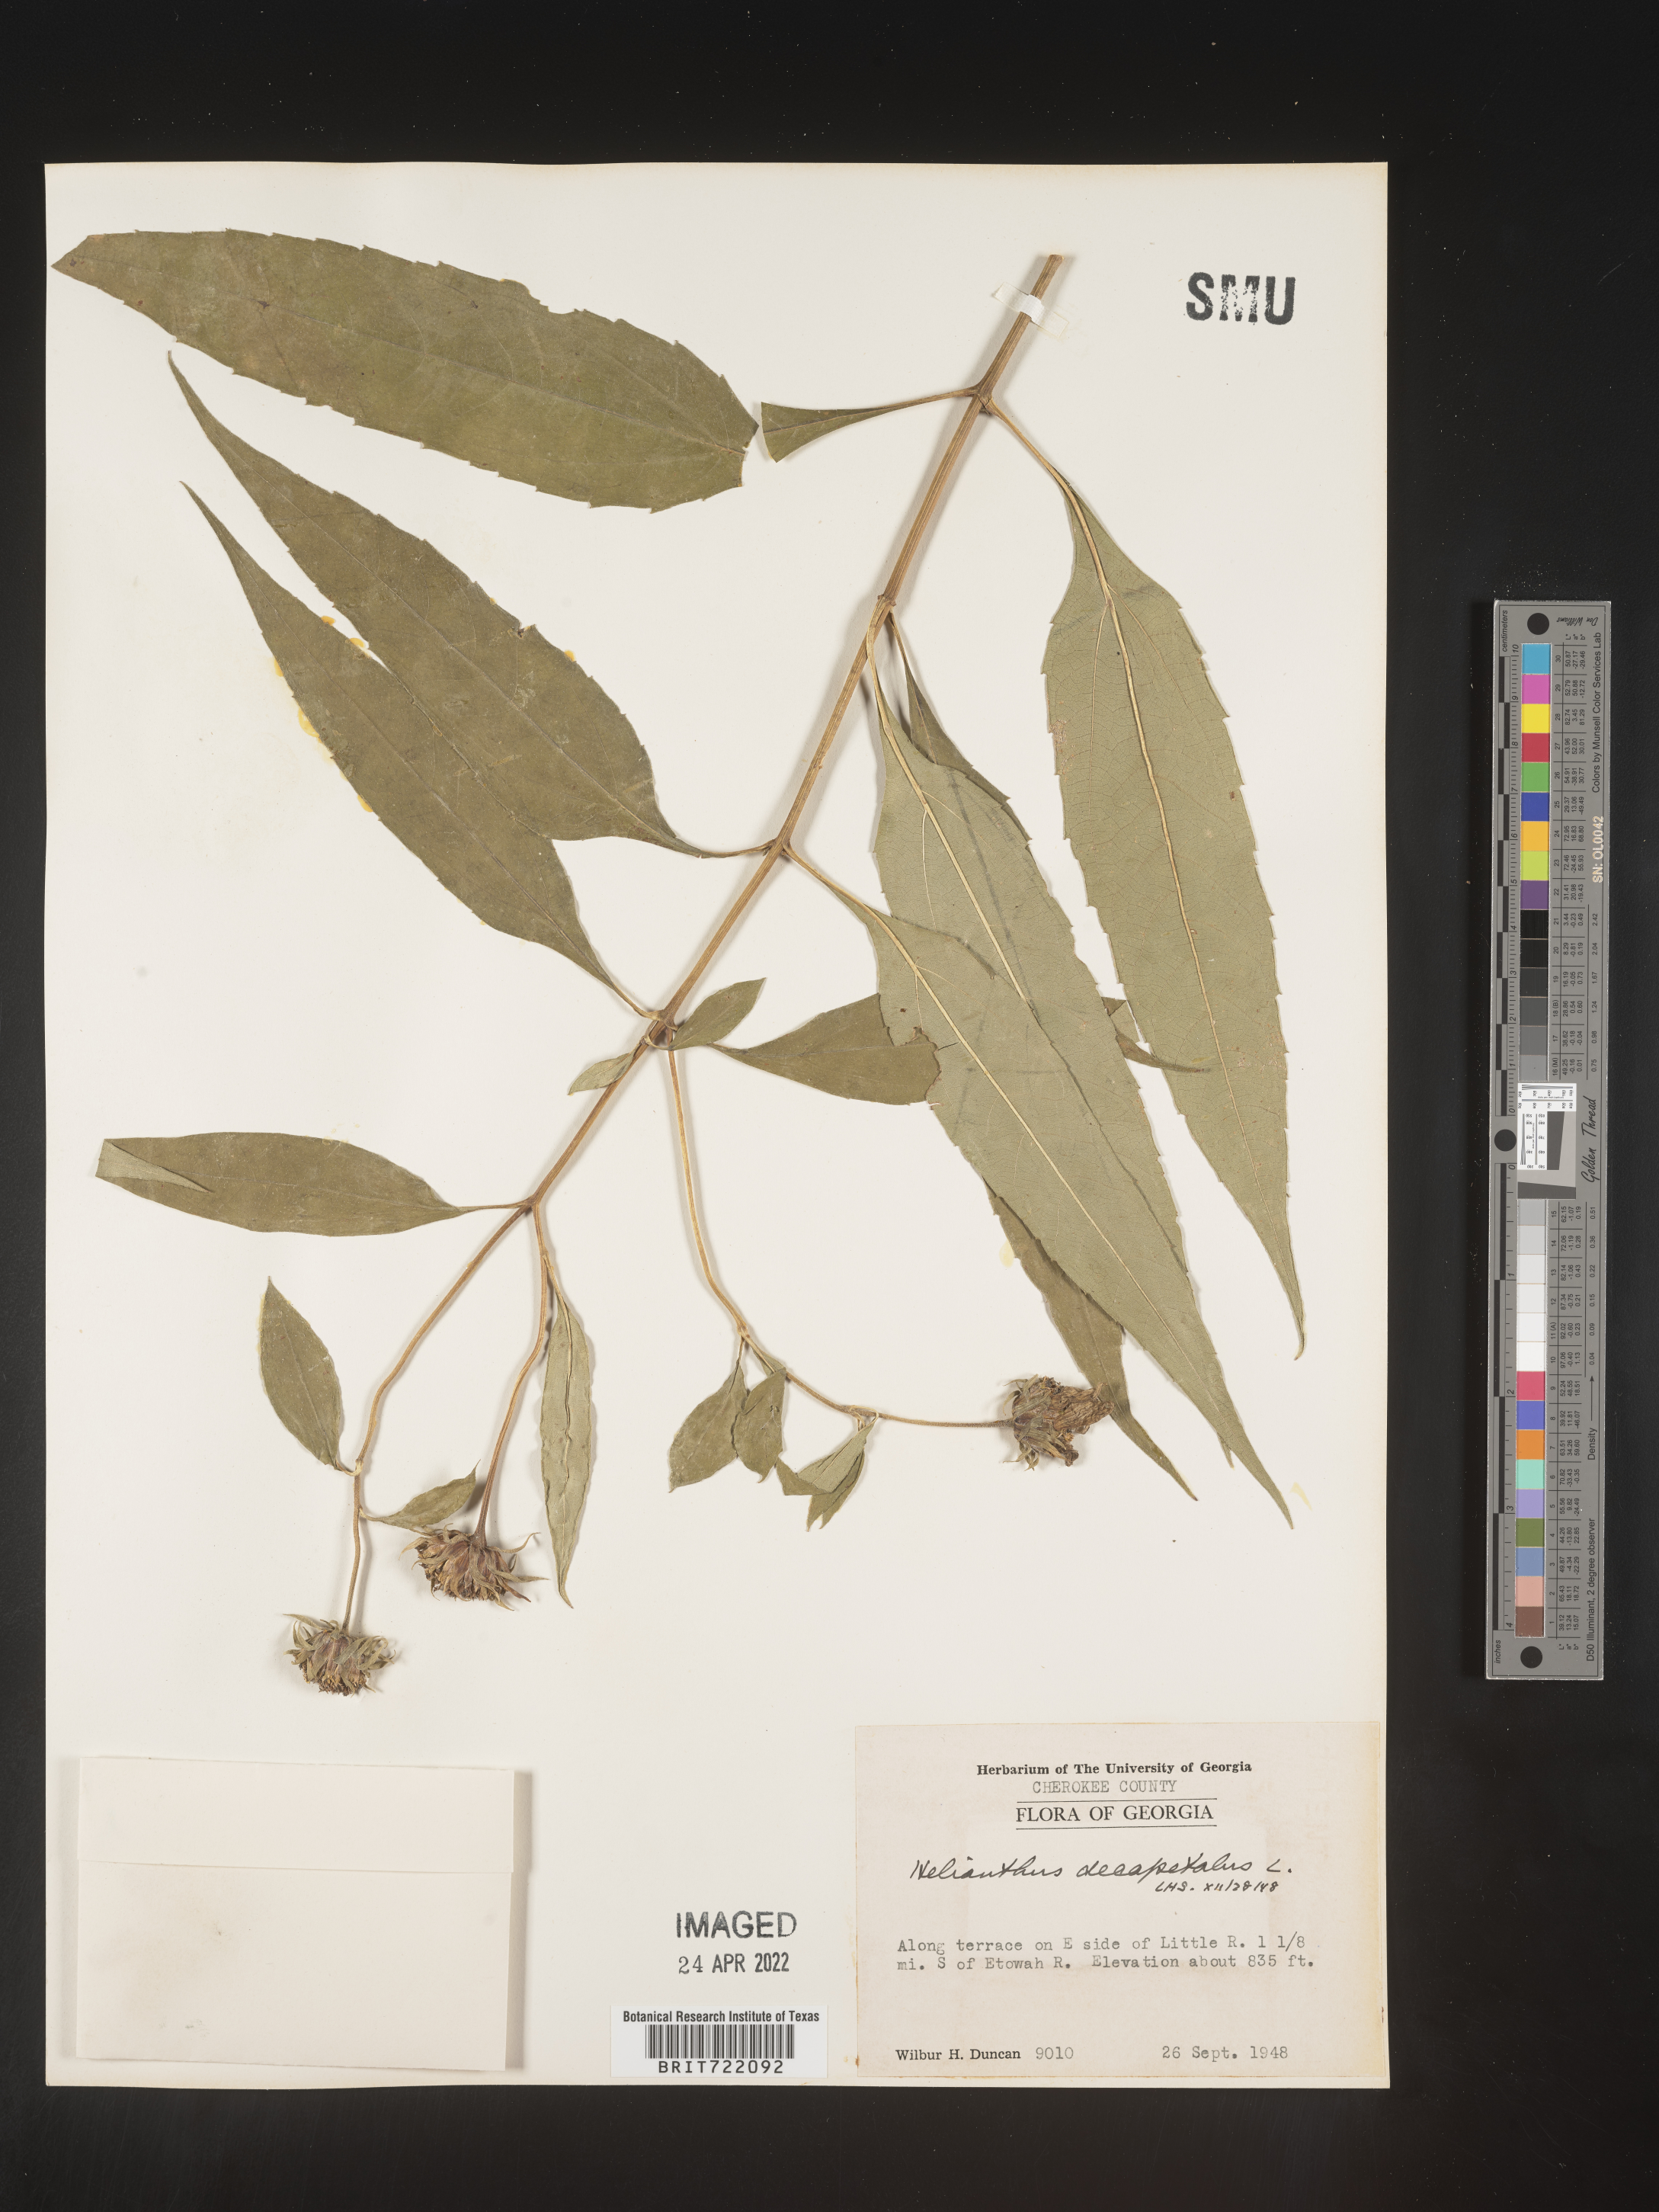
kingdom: Plantae
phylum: Tracheophyta
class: Magnoliopsida
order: Asterales
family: Asteraceae
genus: Helianthus
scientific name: Helianthus decapetalus
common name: Thin-leaved sunflower
